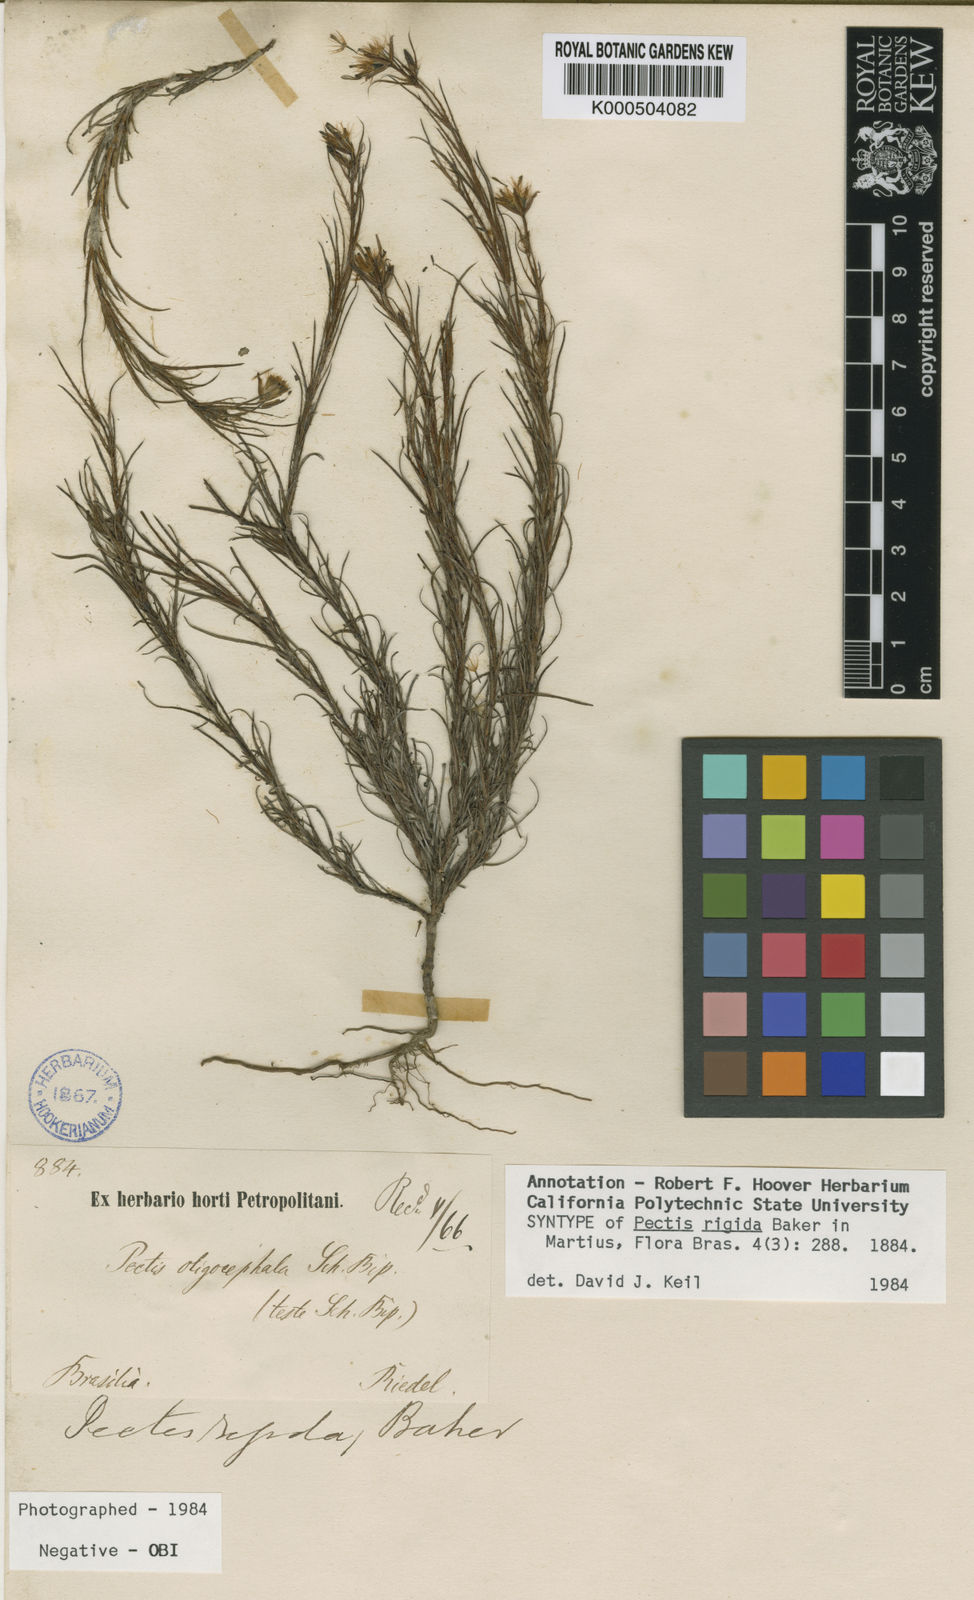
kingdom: Plantae
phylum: Tracheophyta
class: Magnoliopsida
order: Asterales
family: Asteraceae
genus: Pectis
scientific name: Pectis oligocephala
